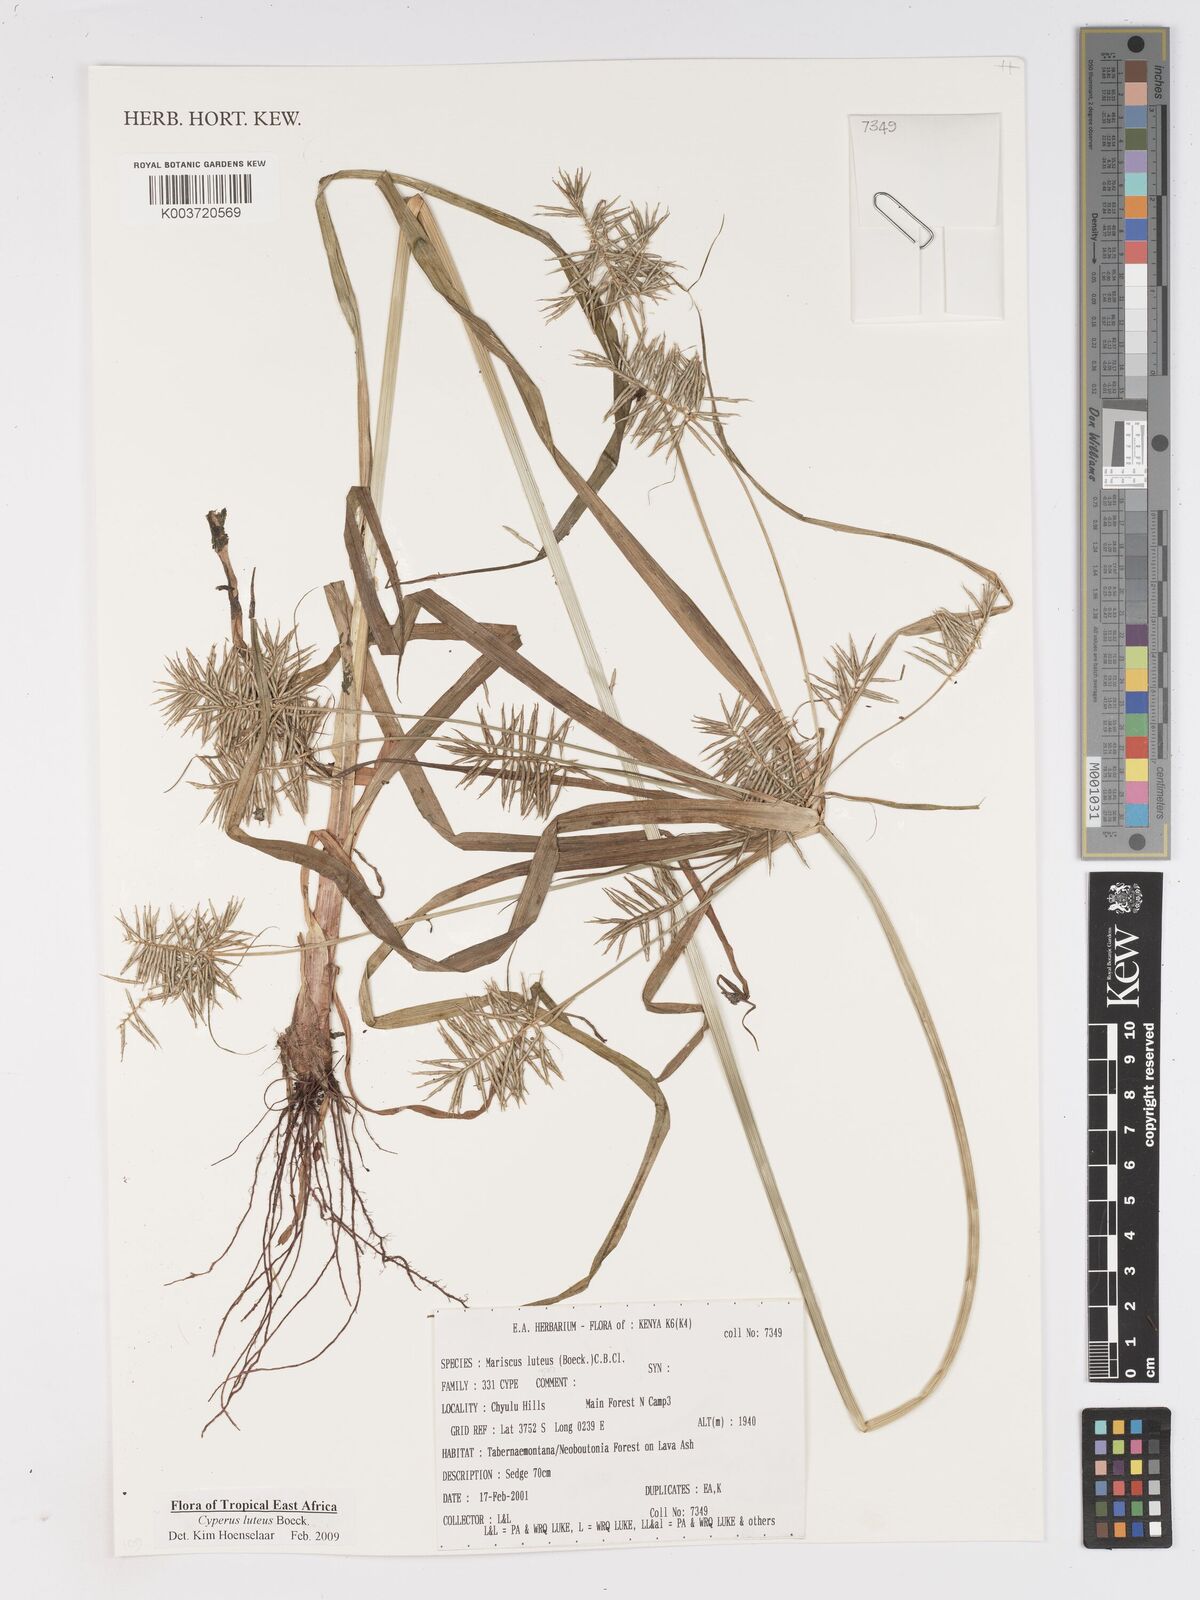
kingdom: Plantae
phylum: Tracheophyta
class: Liliopsida
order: Poales
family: Cyperaceae
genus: Cyperus
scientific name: Cyperus luteus
